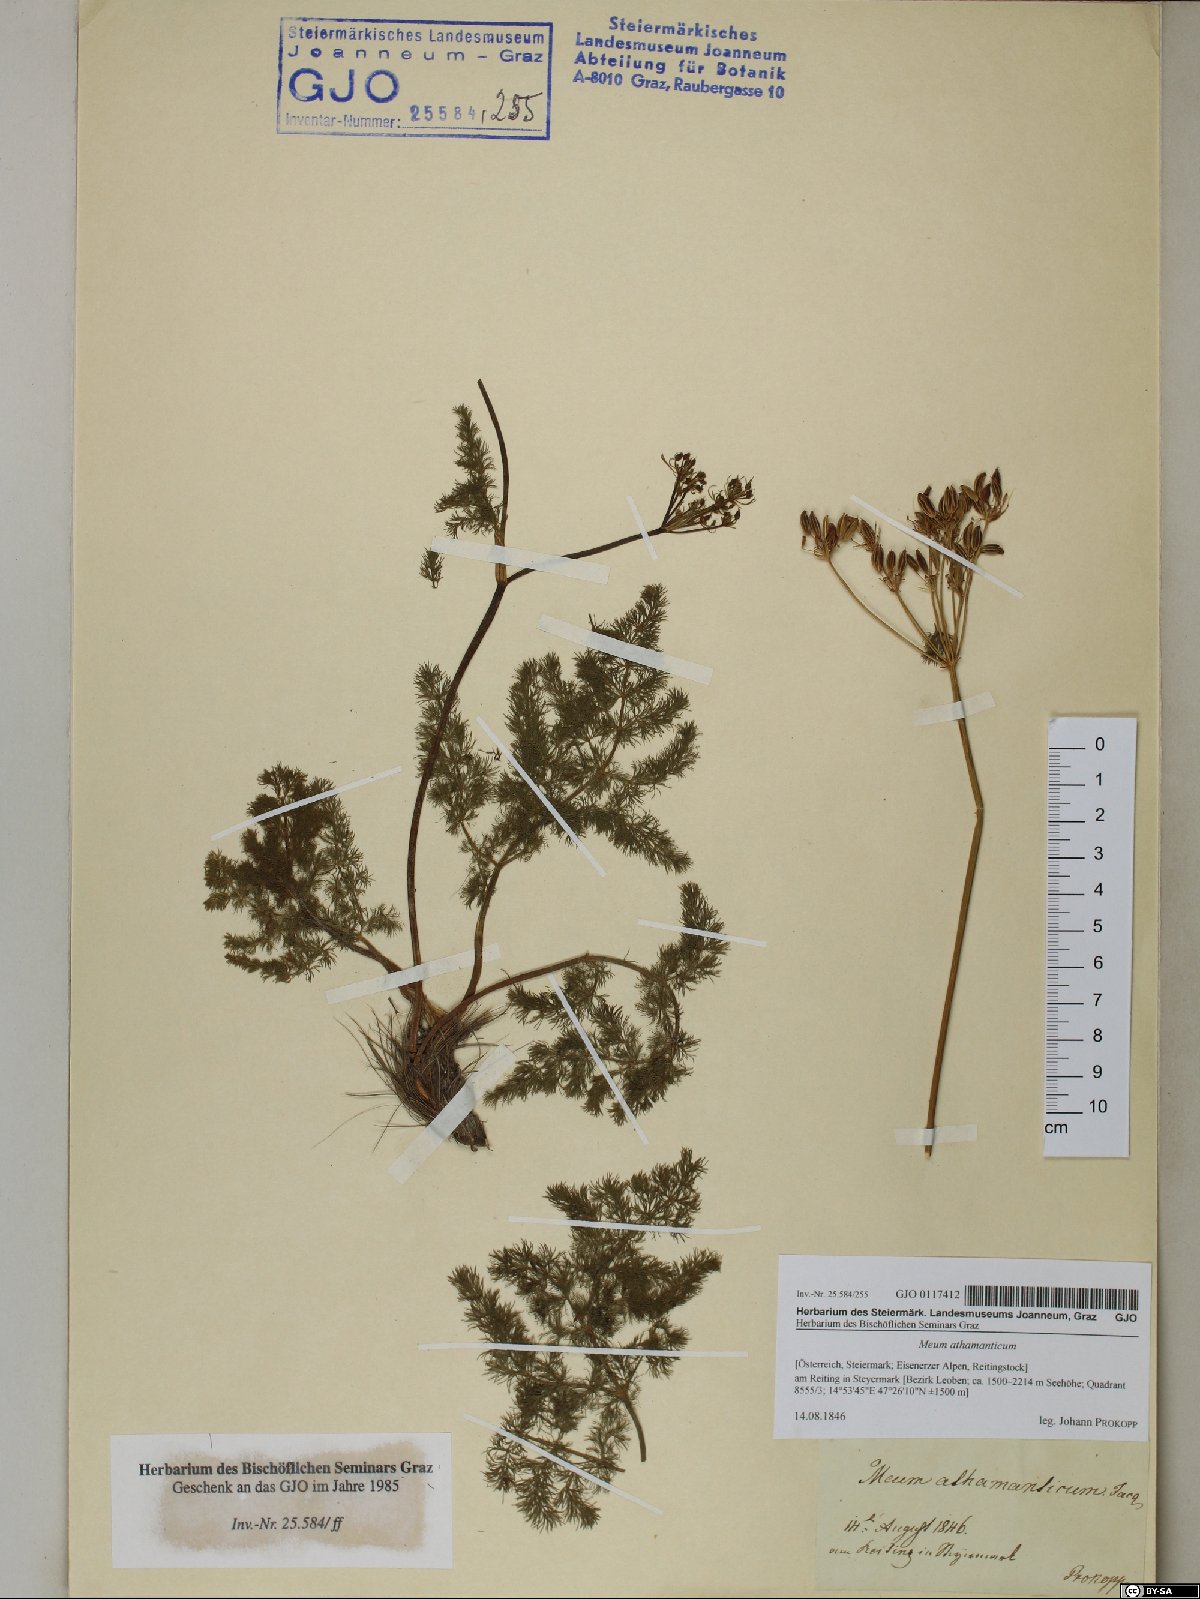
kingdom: Plantae
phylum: Tracheophyta
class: Magnoliopsida
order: Apiales
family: Apiaceae
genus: Meum
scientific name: Meum athamanticum
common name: Spignel
